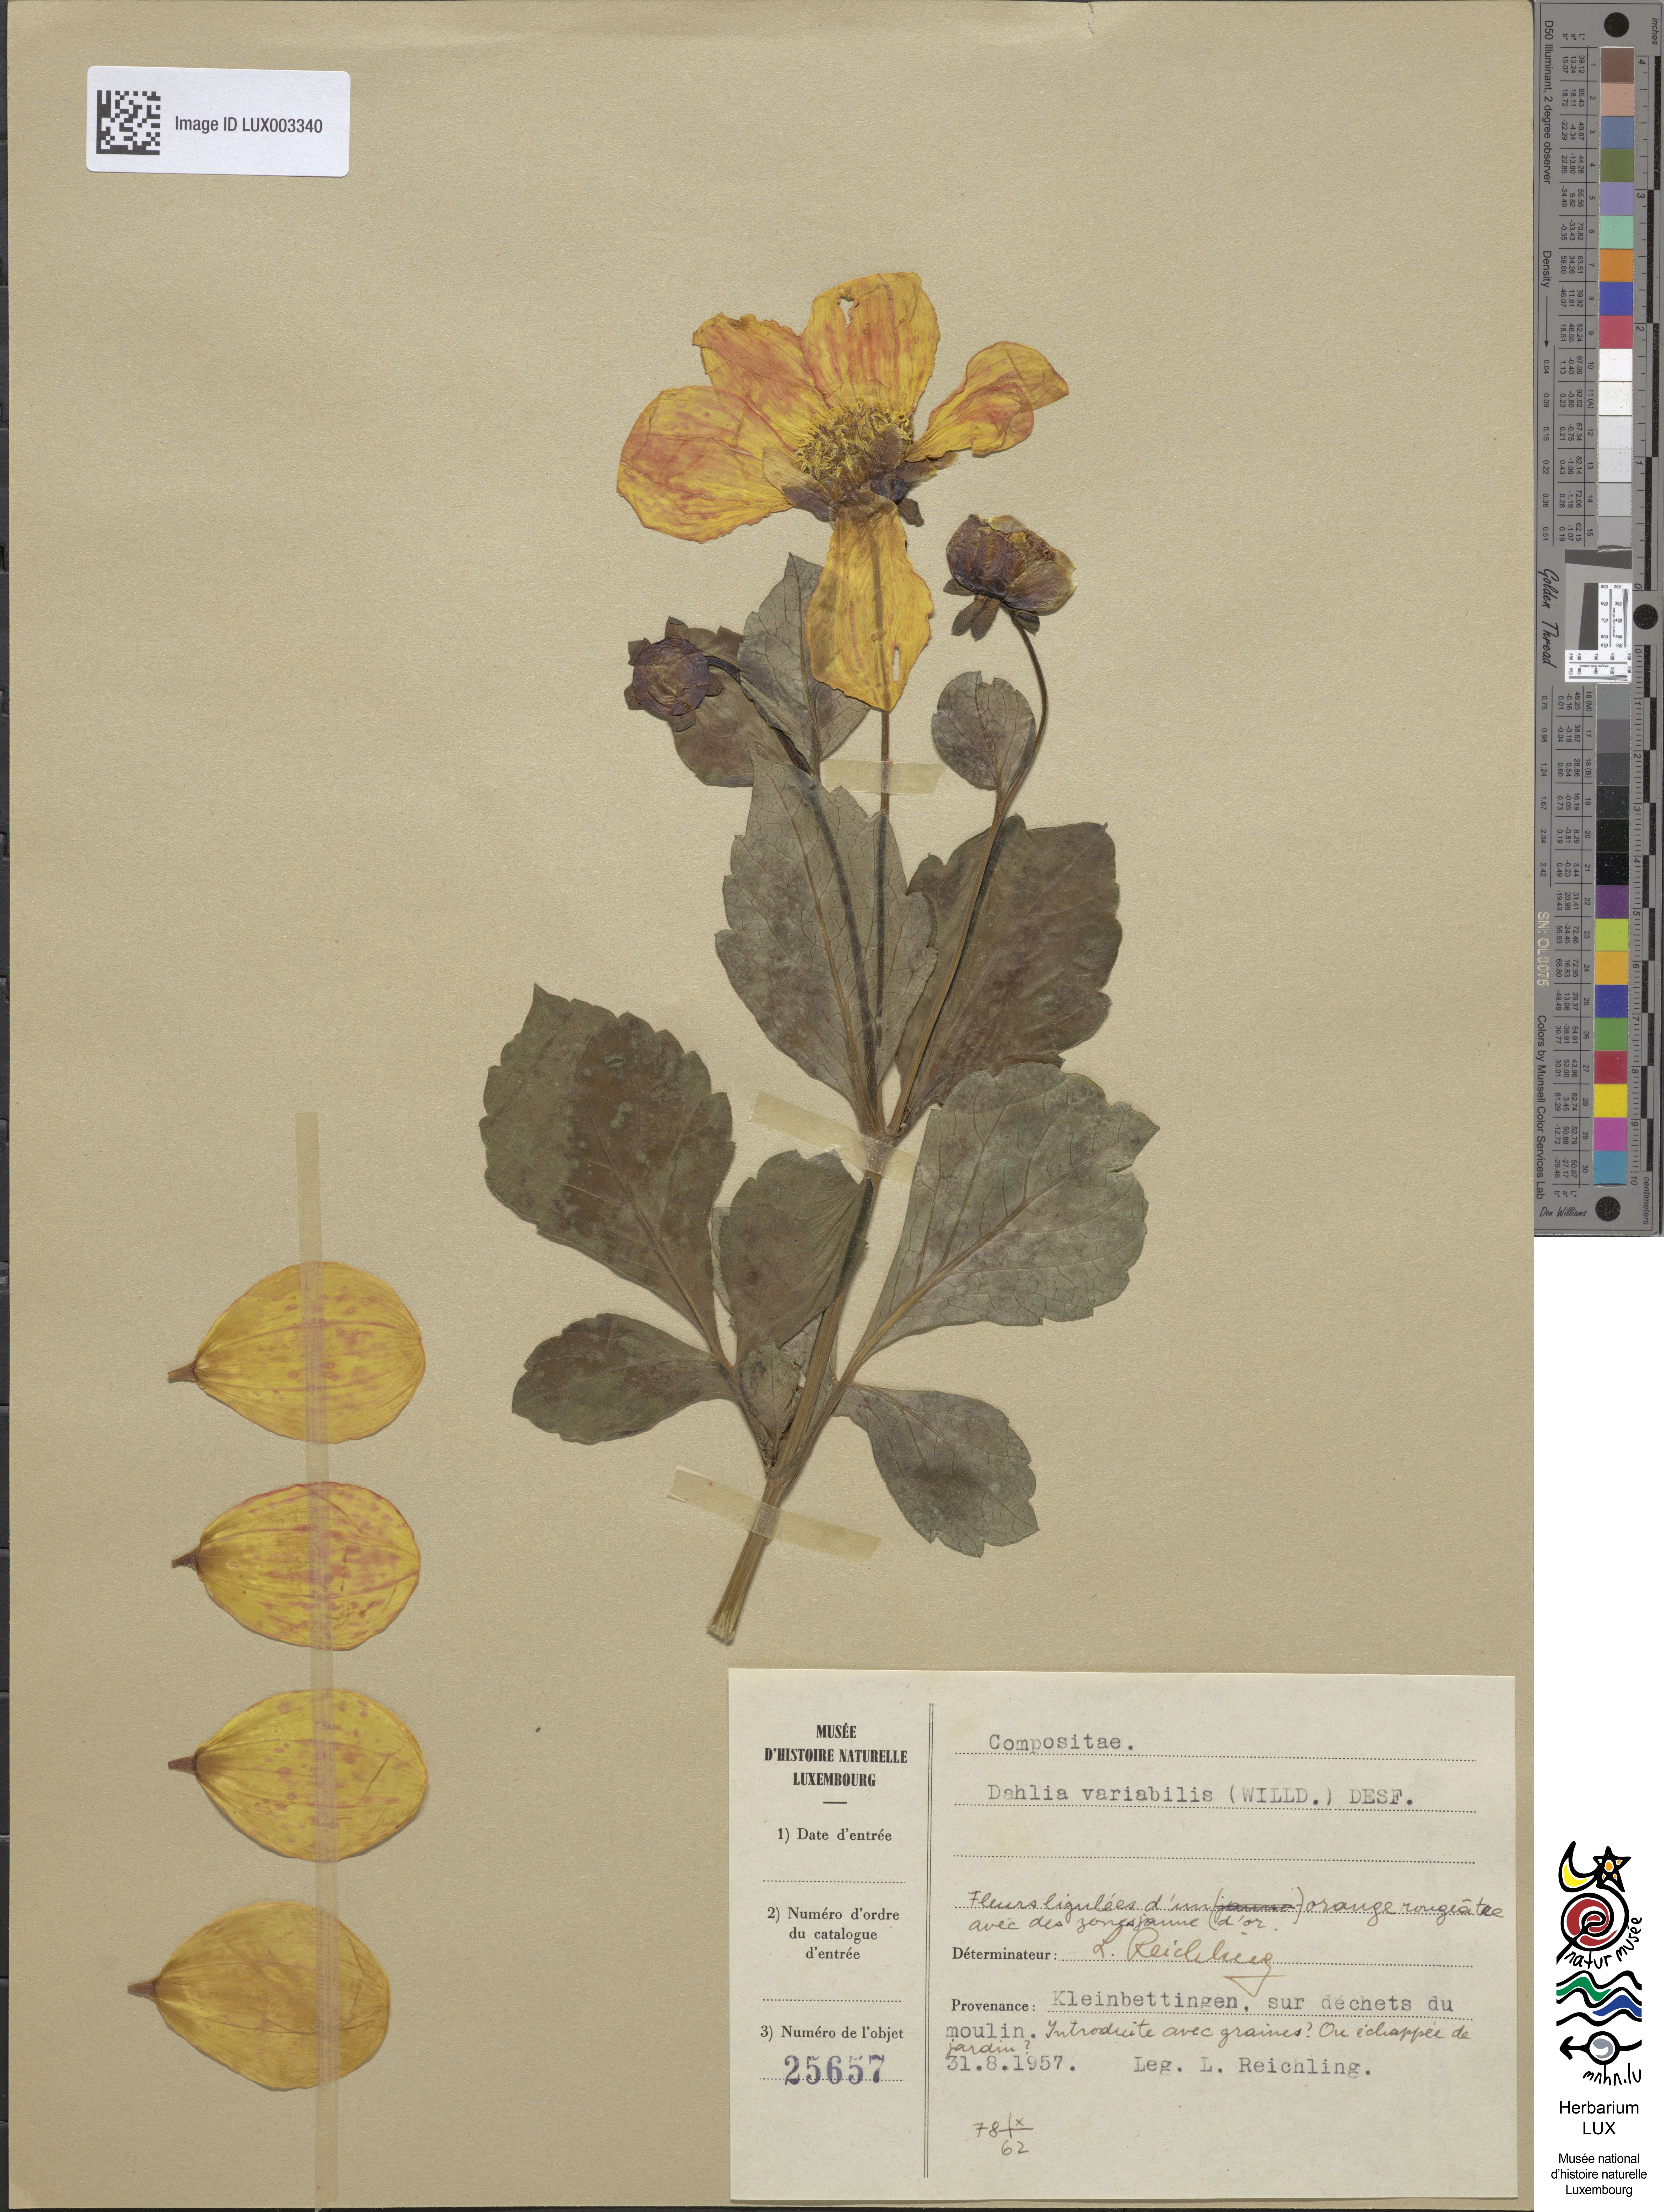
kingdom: Plantae
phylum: Tracheophyta
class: Magnoliopsida
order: Asterales
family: Asteraceae
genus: Dahlia
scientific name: Dahlia pinnata
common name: Dahlia
